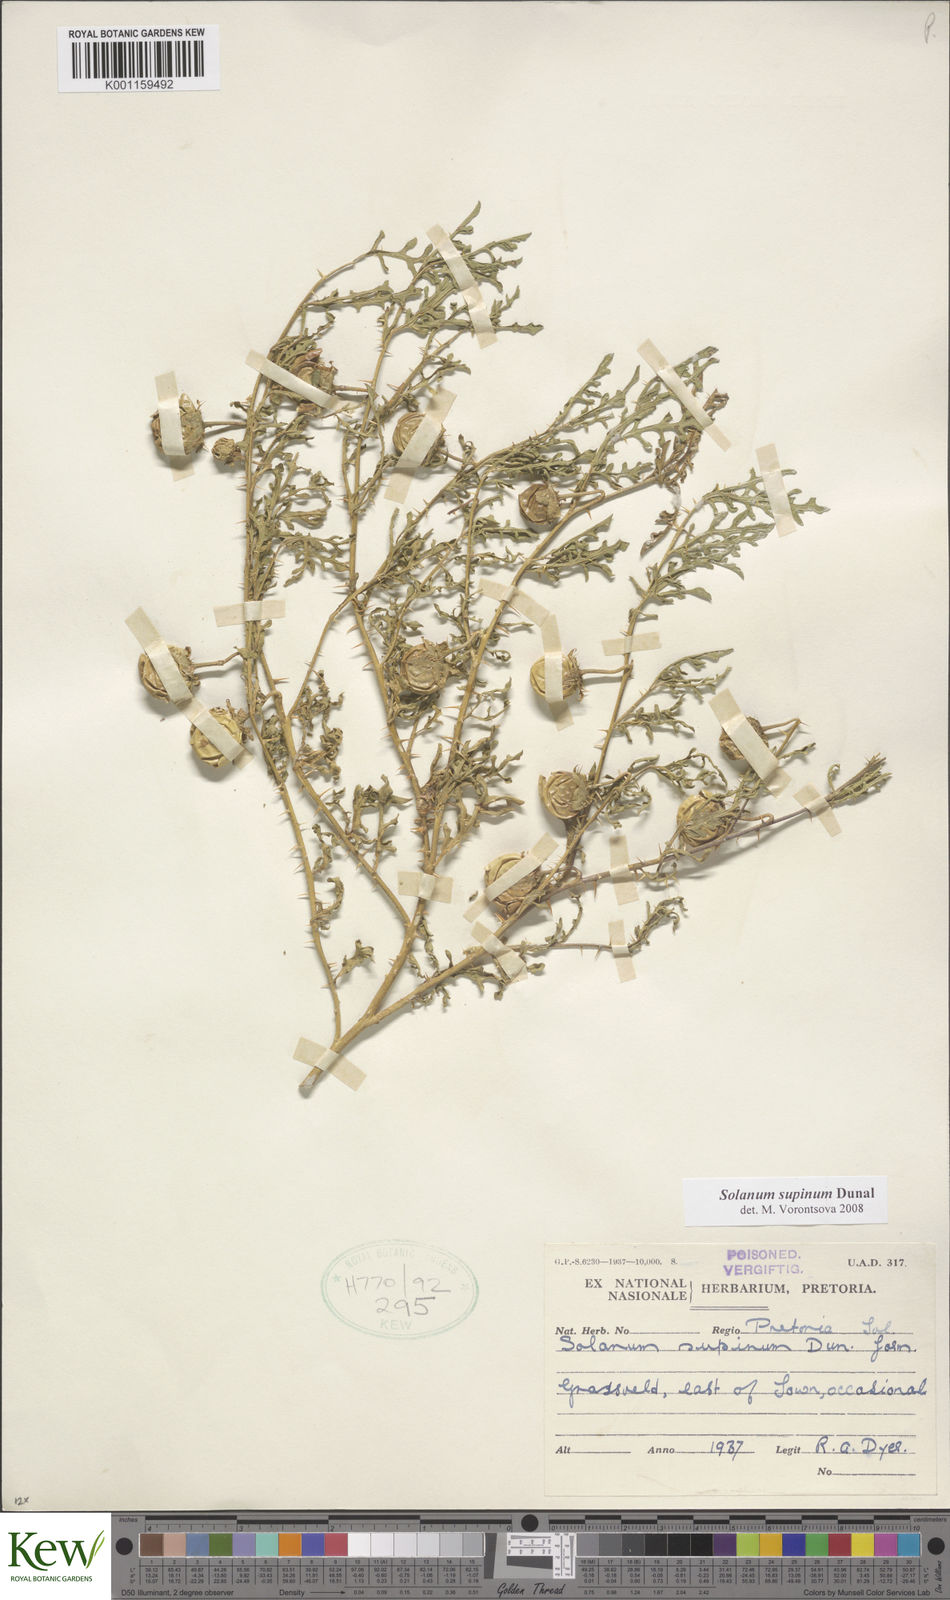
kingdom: Plantae
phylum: Tracheophyta
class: Magnoliopsida
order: Solanales
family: Solanaceae
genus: Solanum
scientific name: Solanum supinum
